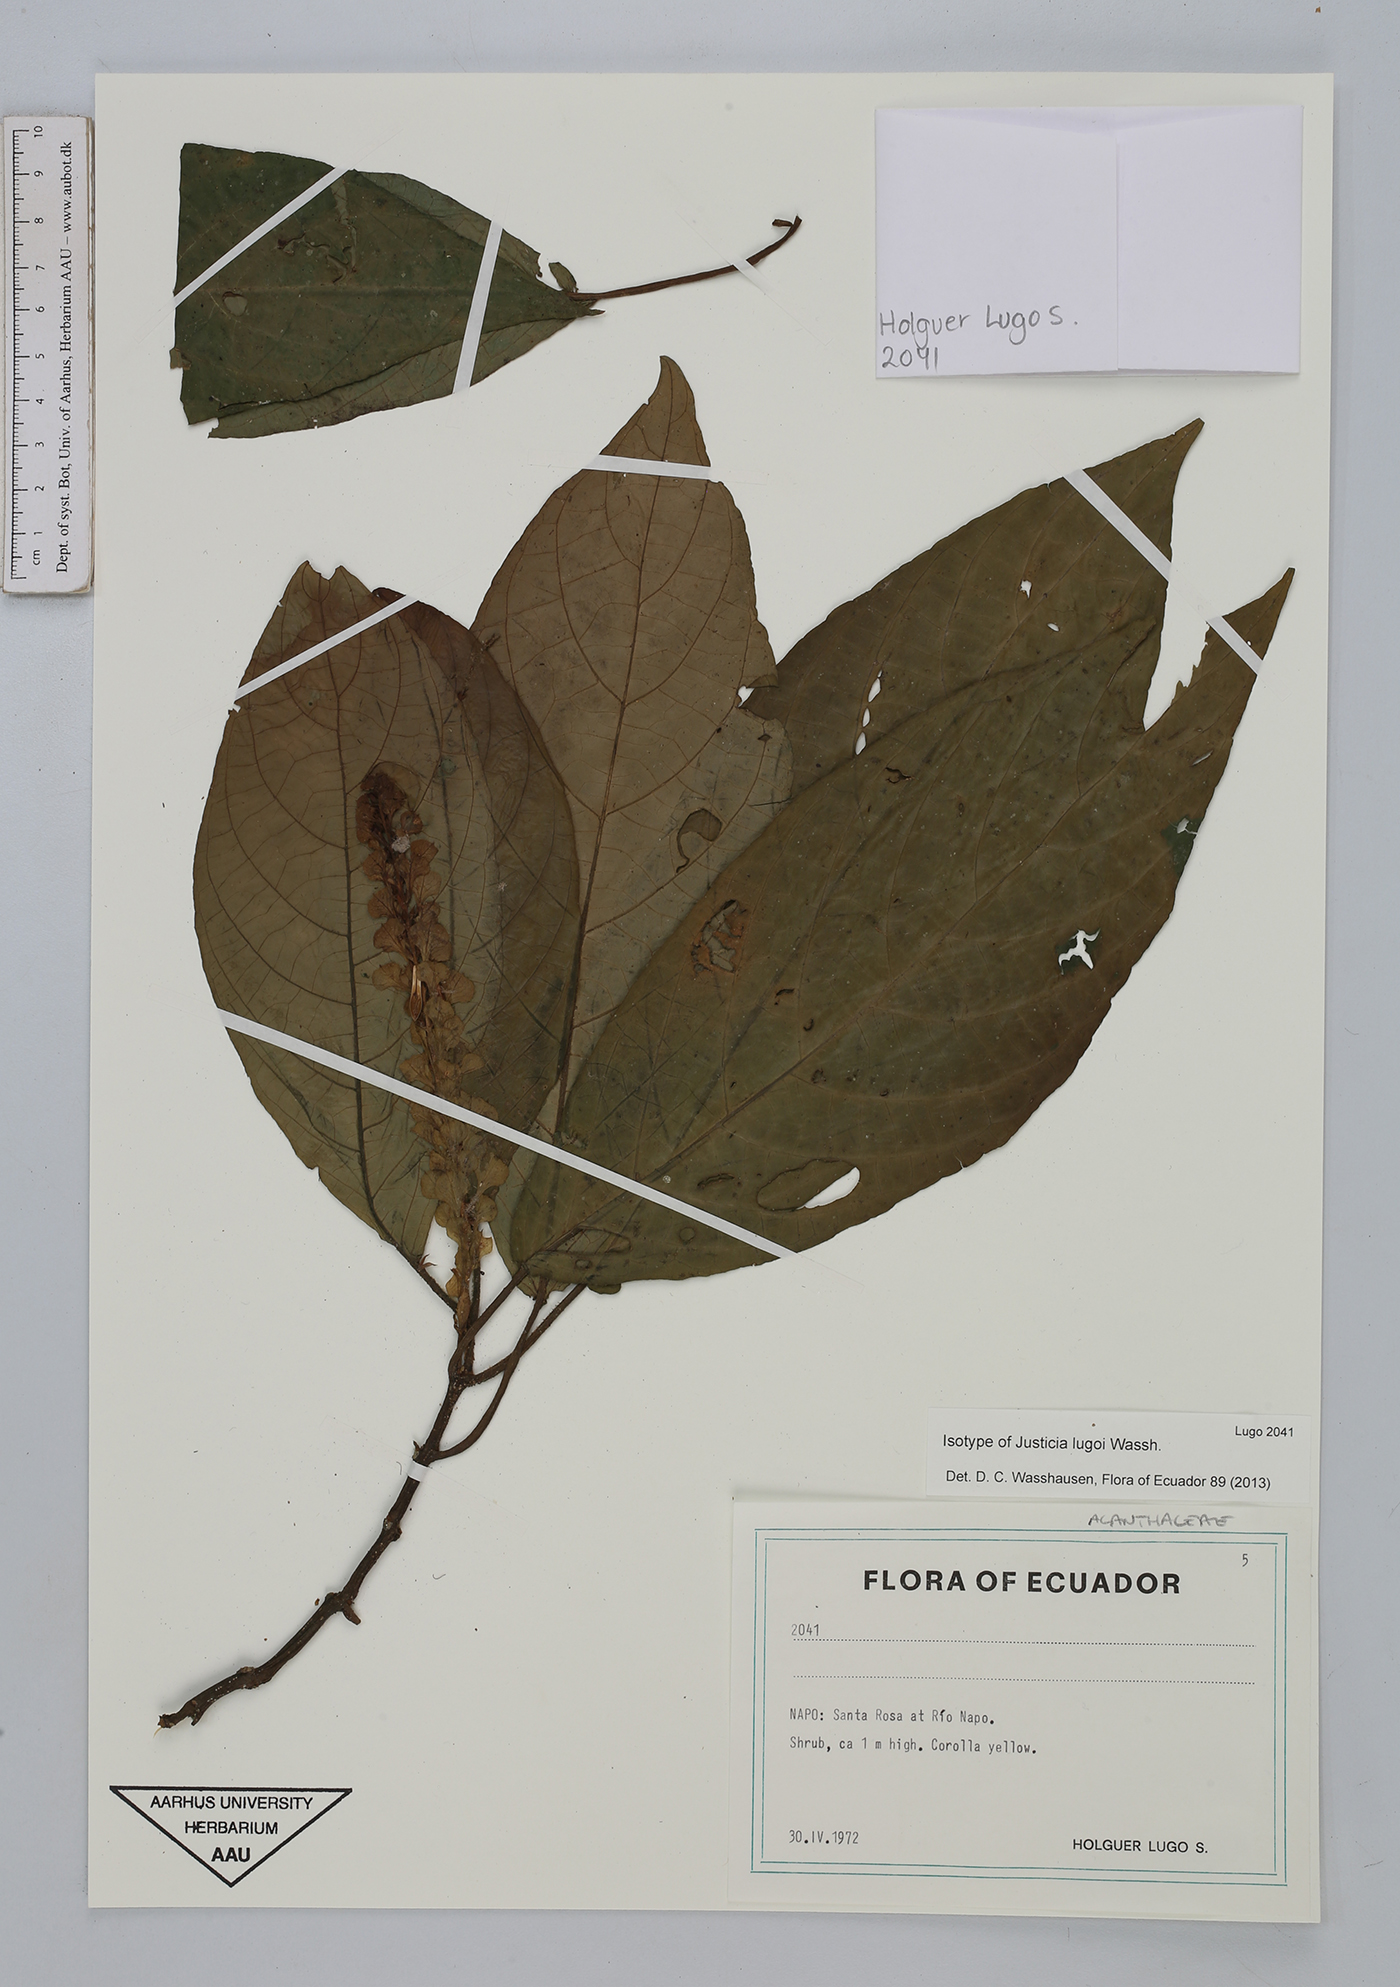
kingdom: Plantae
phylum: Tracheophyta
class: Magnoliopsida
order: Lamiales
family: Acanthaceae
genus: Justicia
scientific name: Justicia lugoi
